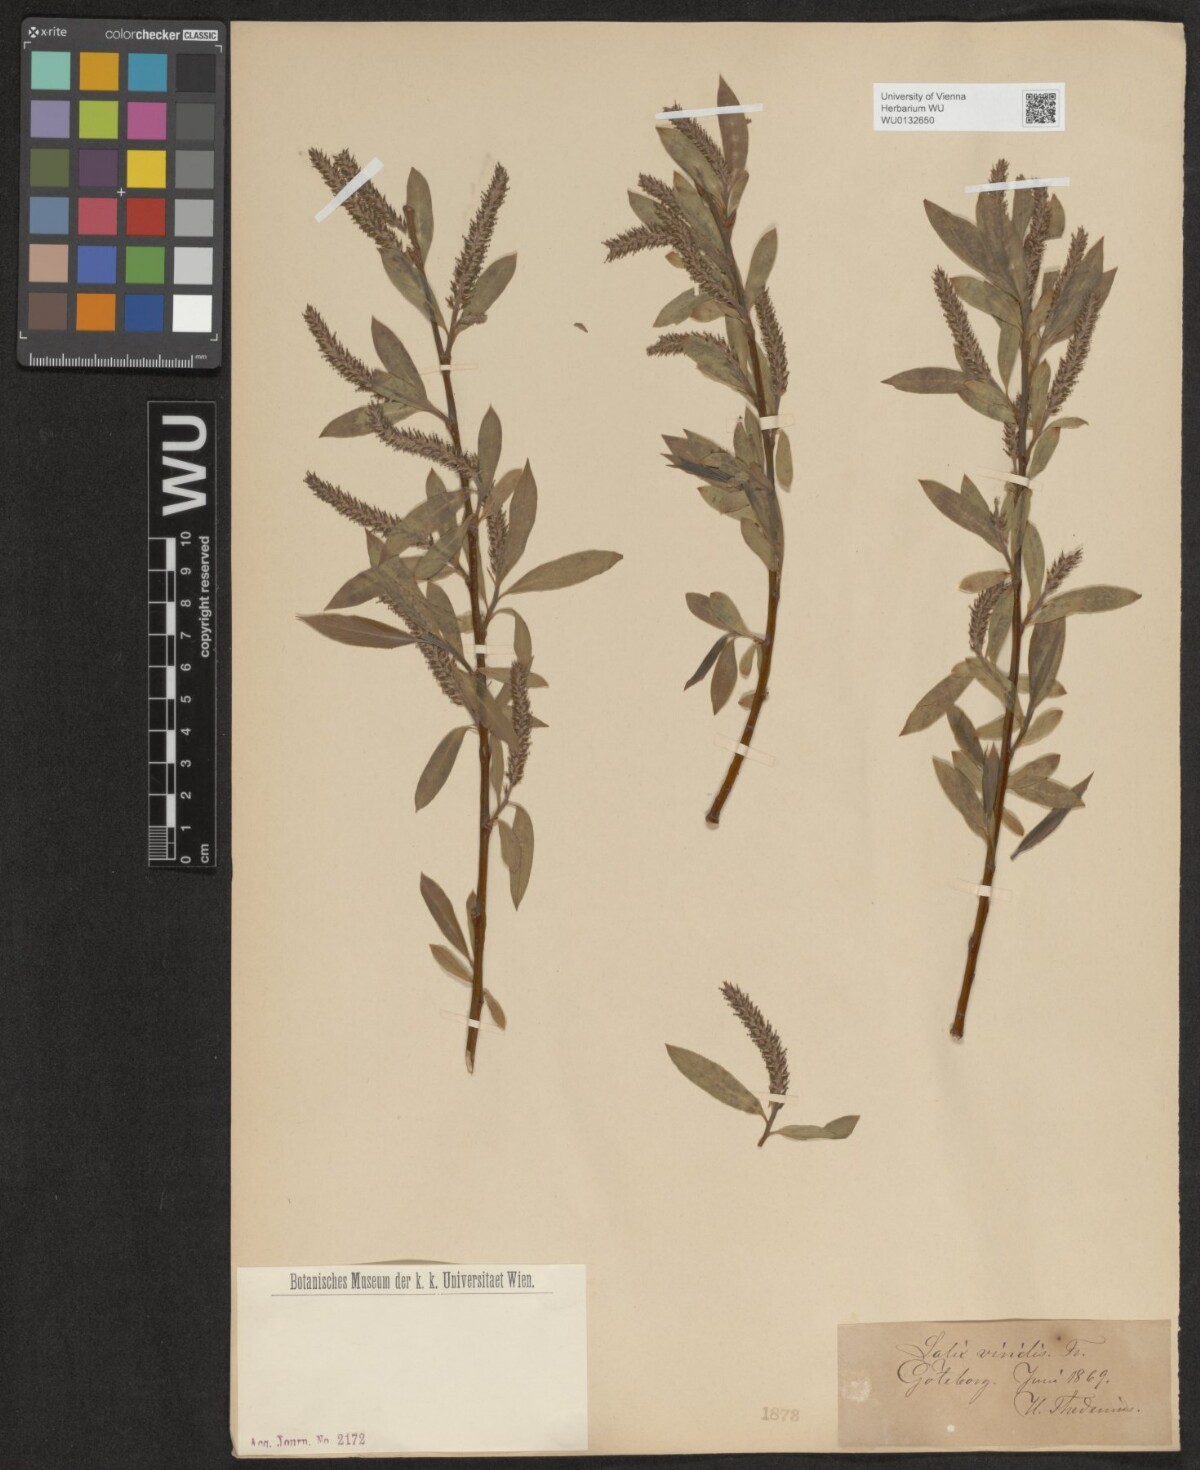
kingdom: Plantae
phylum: Tracheophyta
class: Magnoliopsida
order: Malpighiales
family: Salicaceae
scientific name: Salicaceae
